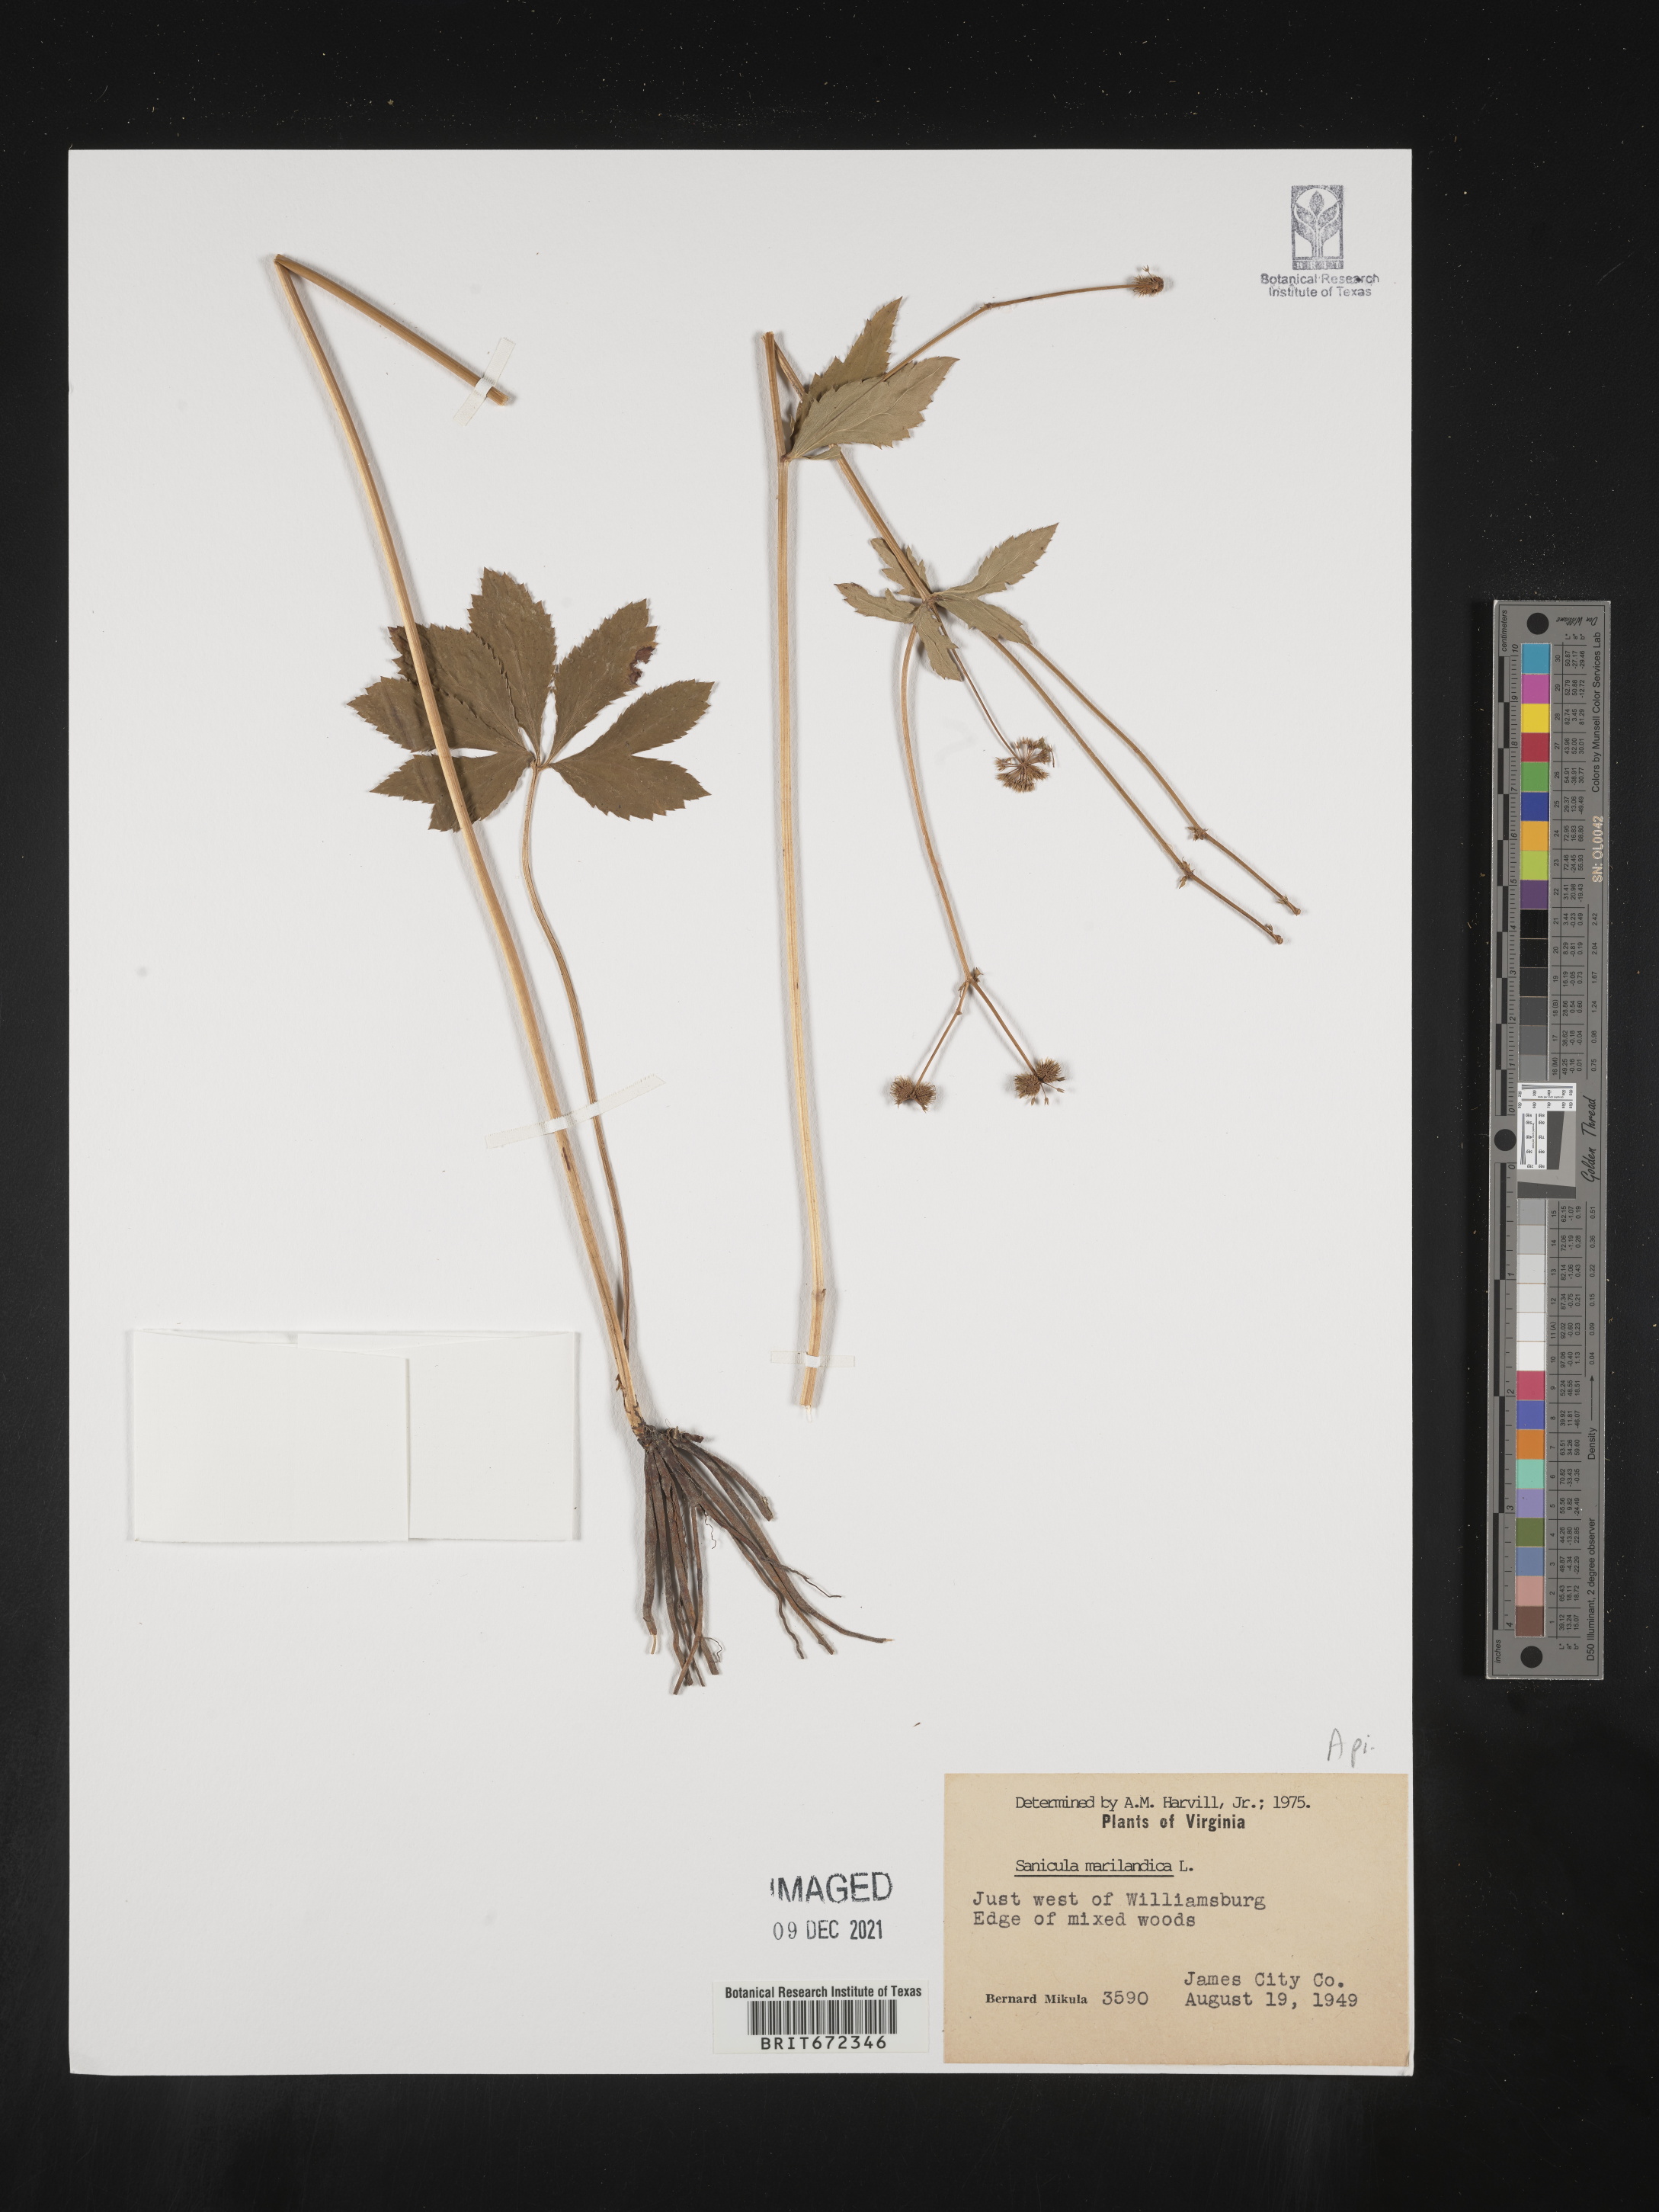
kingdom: Plantae
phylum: Tracheophyta
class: Magnoliopsida
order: Apiales
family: Apiaceae
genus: Sanicula
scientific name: Sanicula marilandica
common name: Black snakeroot
